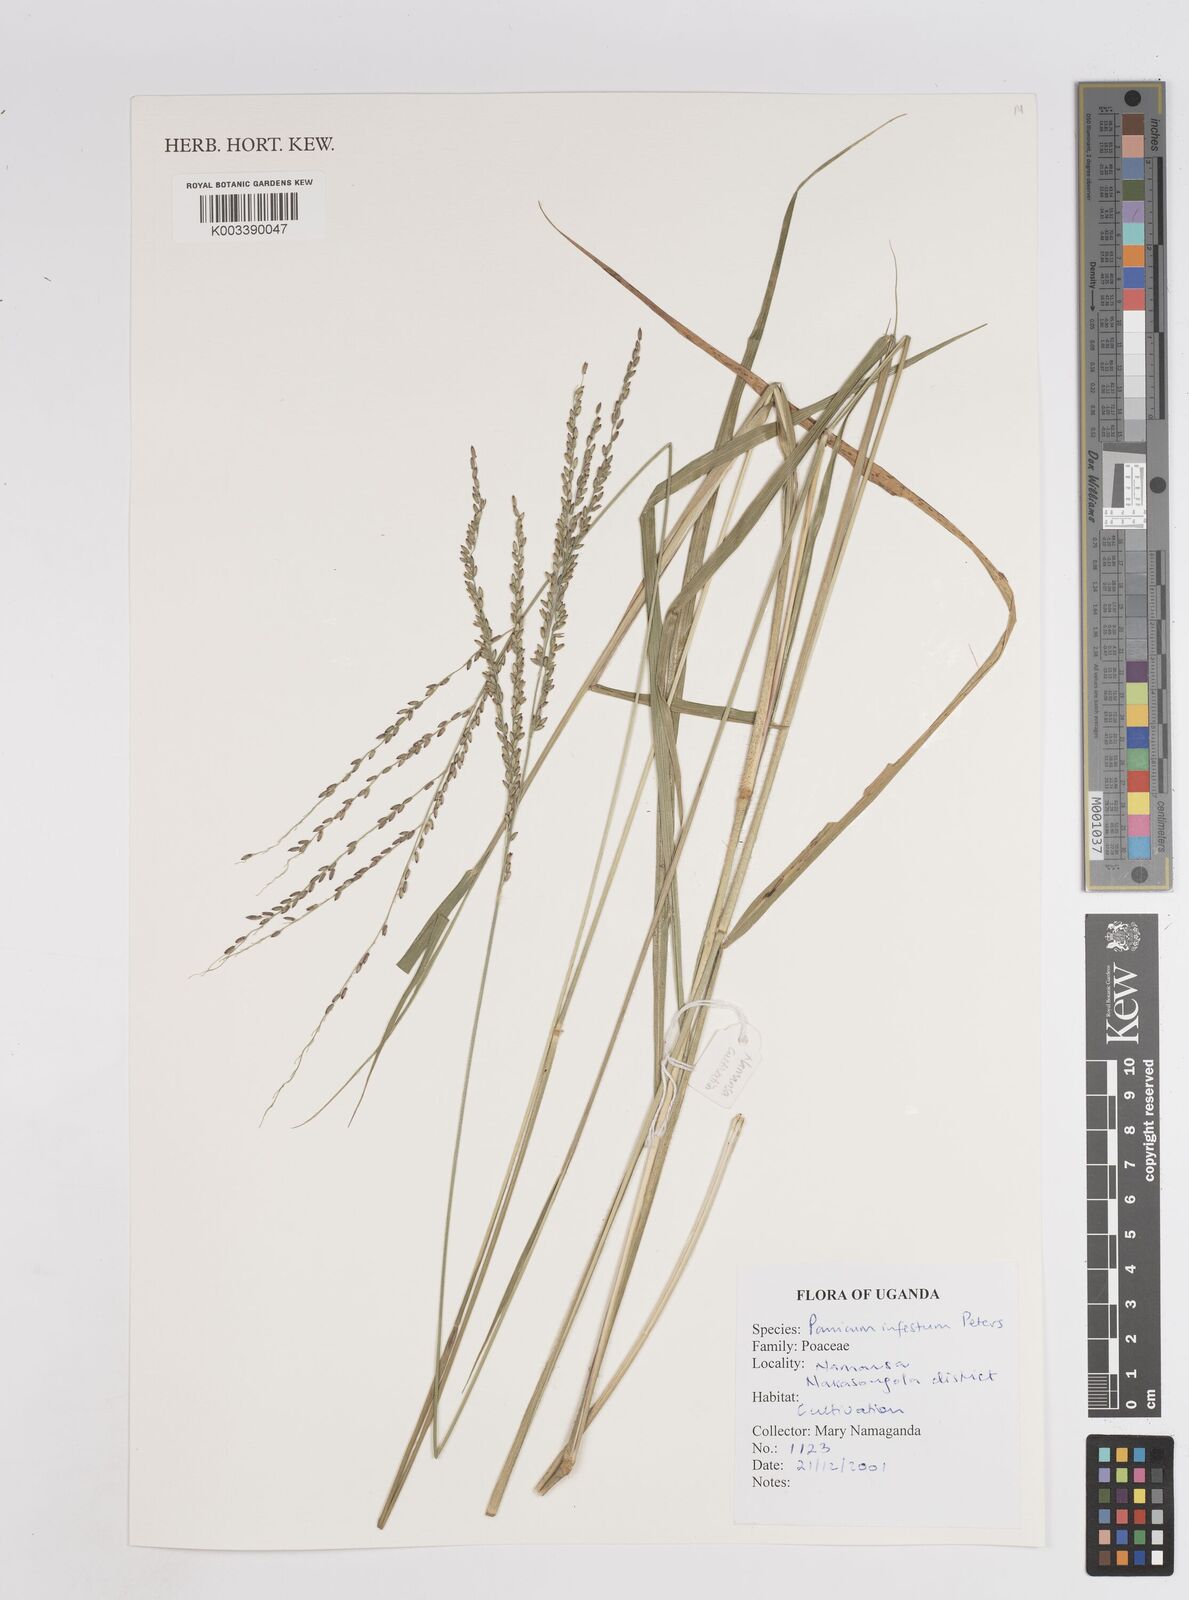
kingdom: Plantae
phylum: Tracheophyta
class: Liliopsida
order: Poales
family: Poaceae
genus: Megathyrsus
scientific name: Megathyrsus infestus
